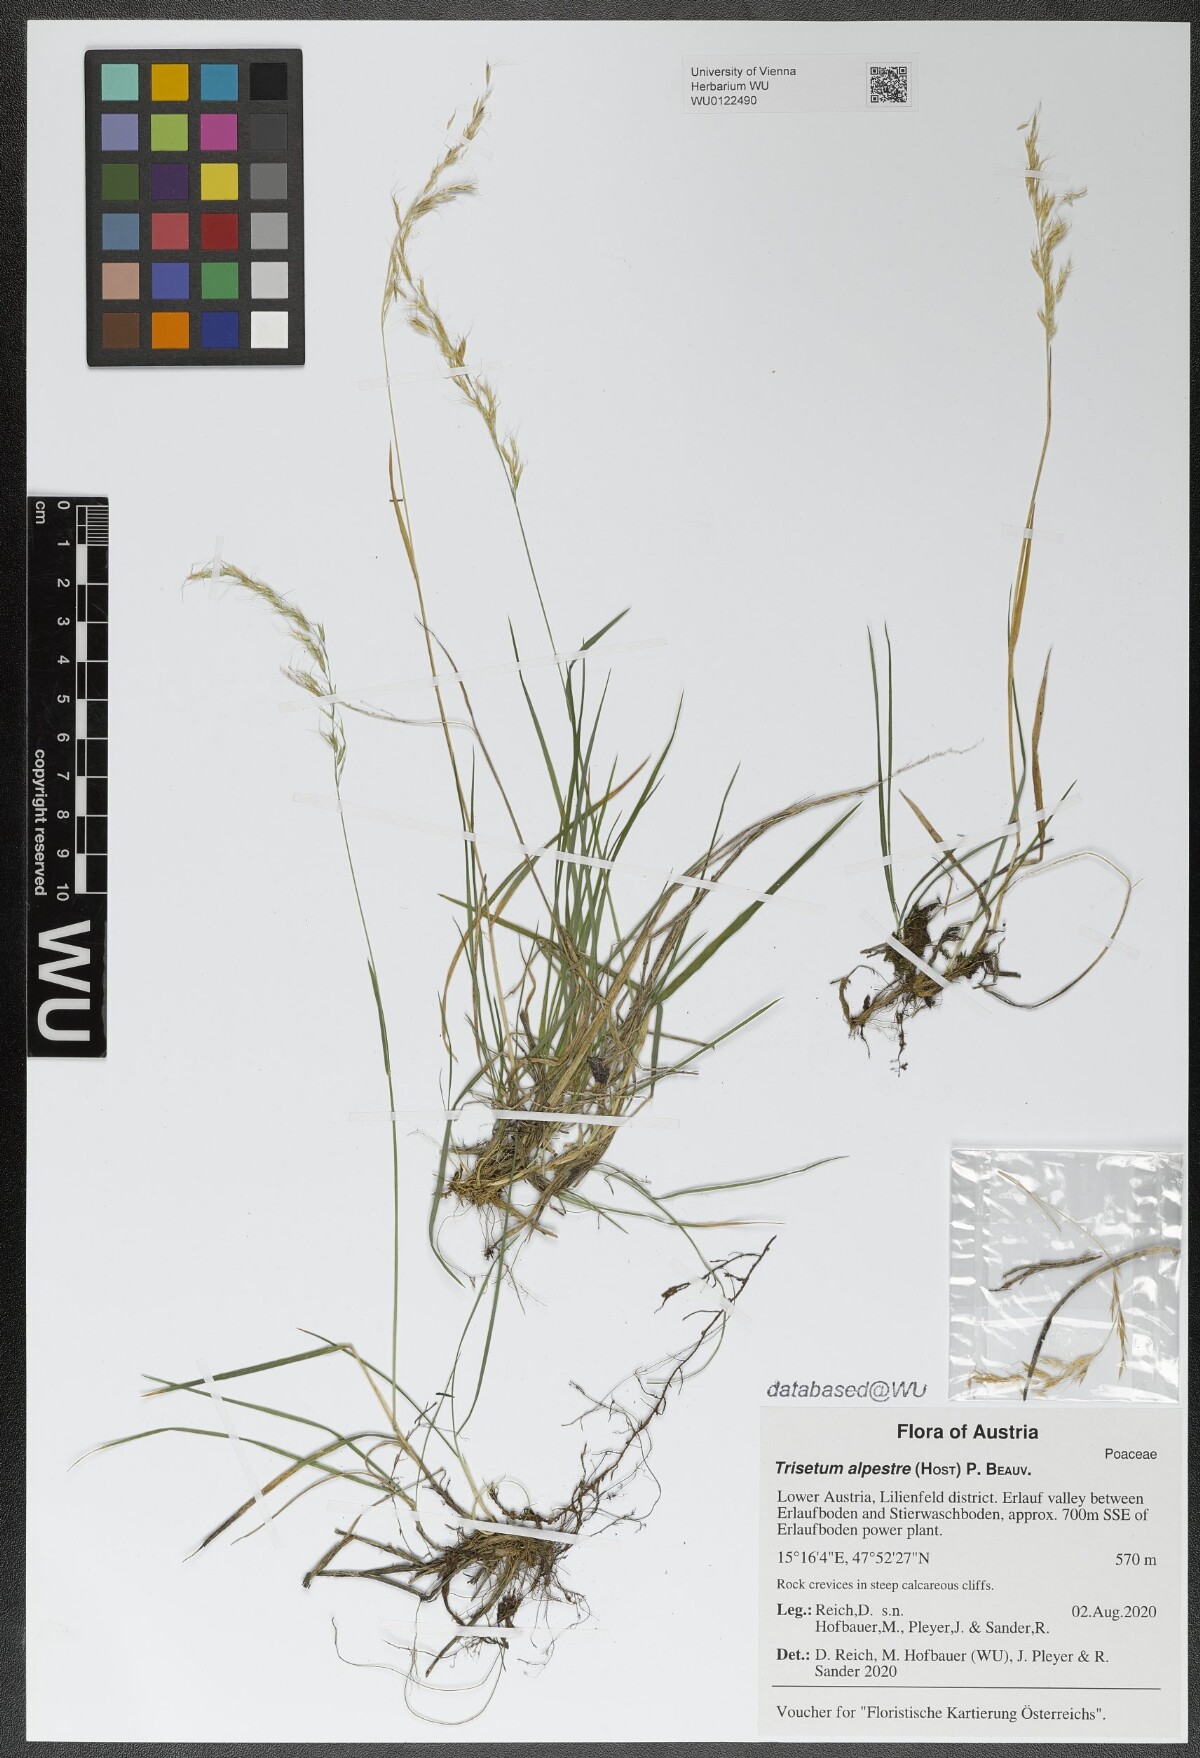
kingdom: Plantae
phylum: Tracheophyta
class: Liliopsida
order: Poales
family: Poaceae
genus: Trisetum
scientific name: Trisetum alpestre
